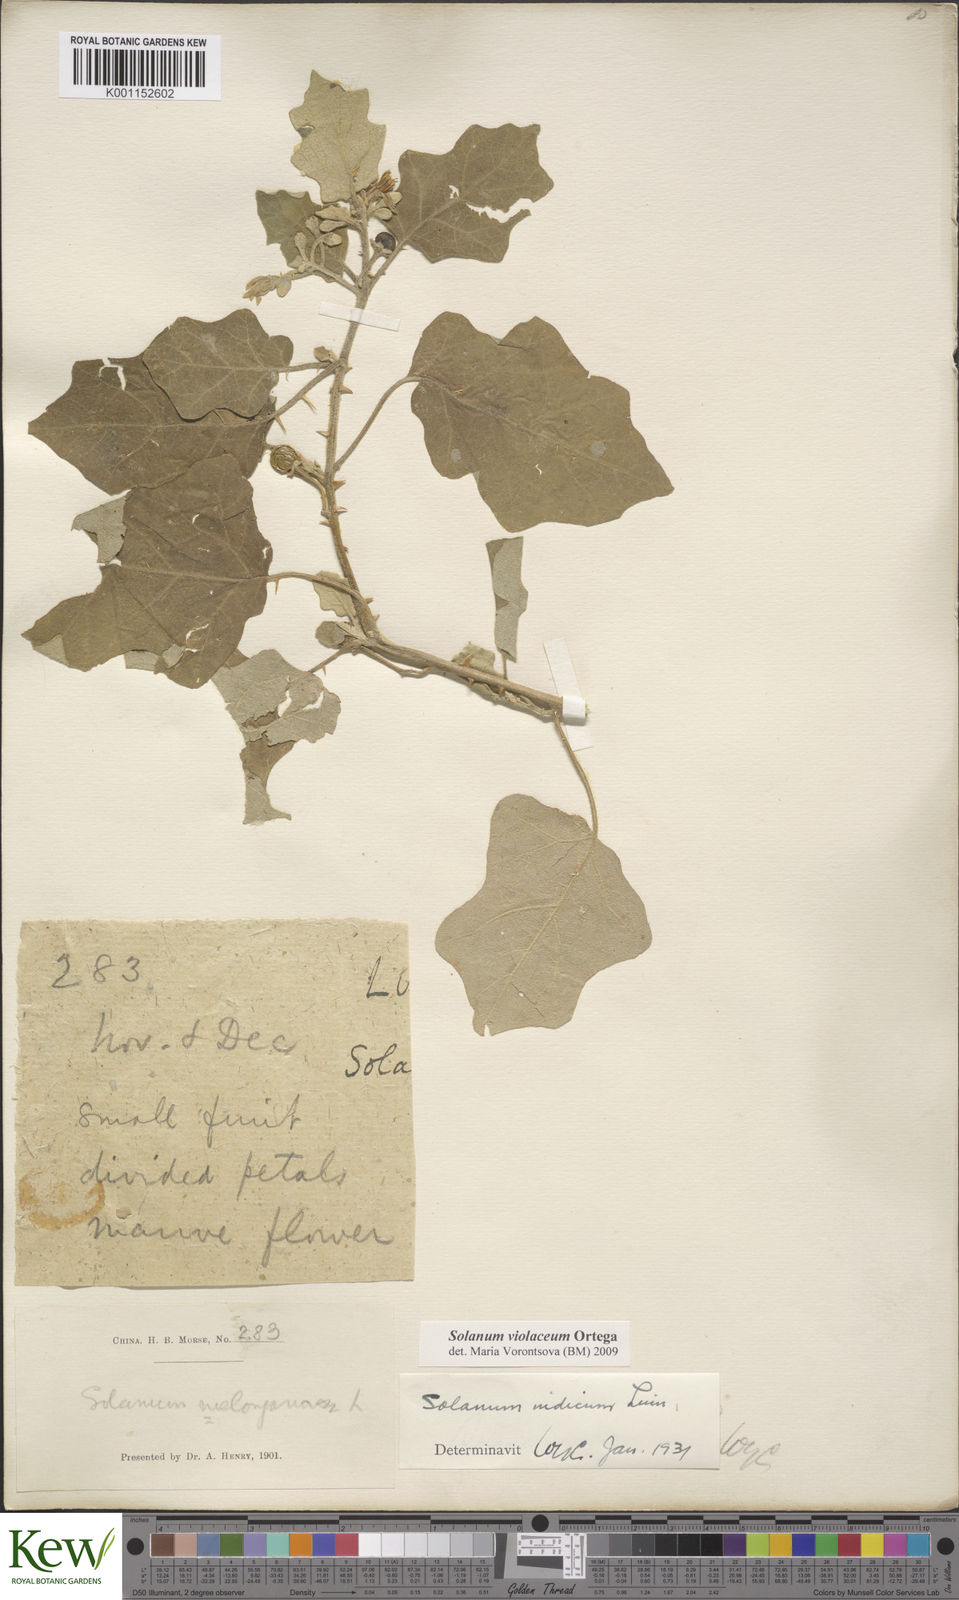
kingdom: Plantae
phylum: Tracheophyta
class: Magnoliopsida
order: Solanales
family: Solanaceae
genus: Solanum
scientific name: Solanum violaceum
